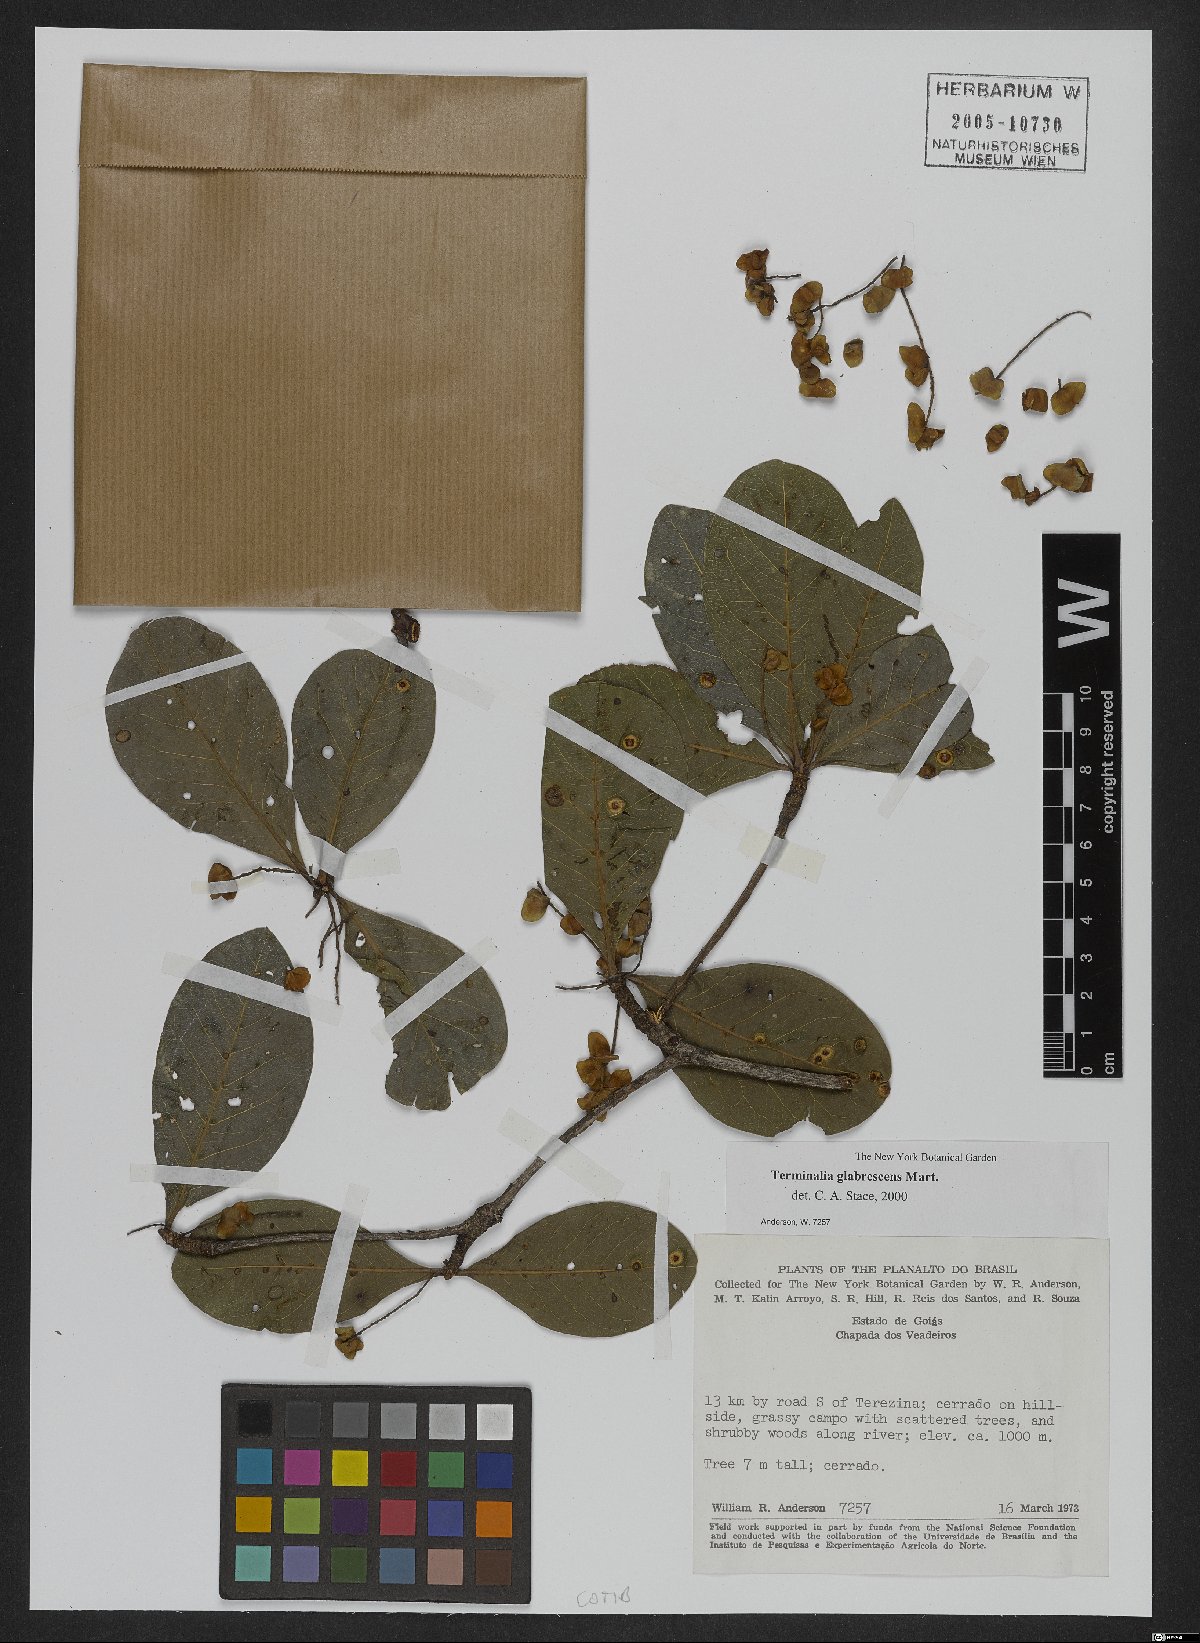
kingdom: Plantae
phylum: Tracheophyta
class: Magnoliopsida
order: Myrtales
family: Combretaceae
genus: Terminalia
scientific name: Terminalia glabrescens
